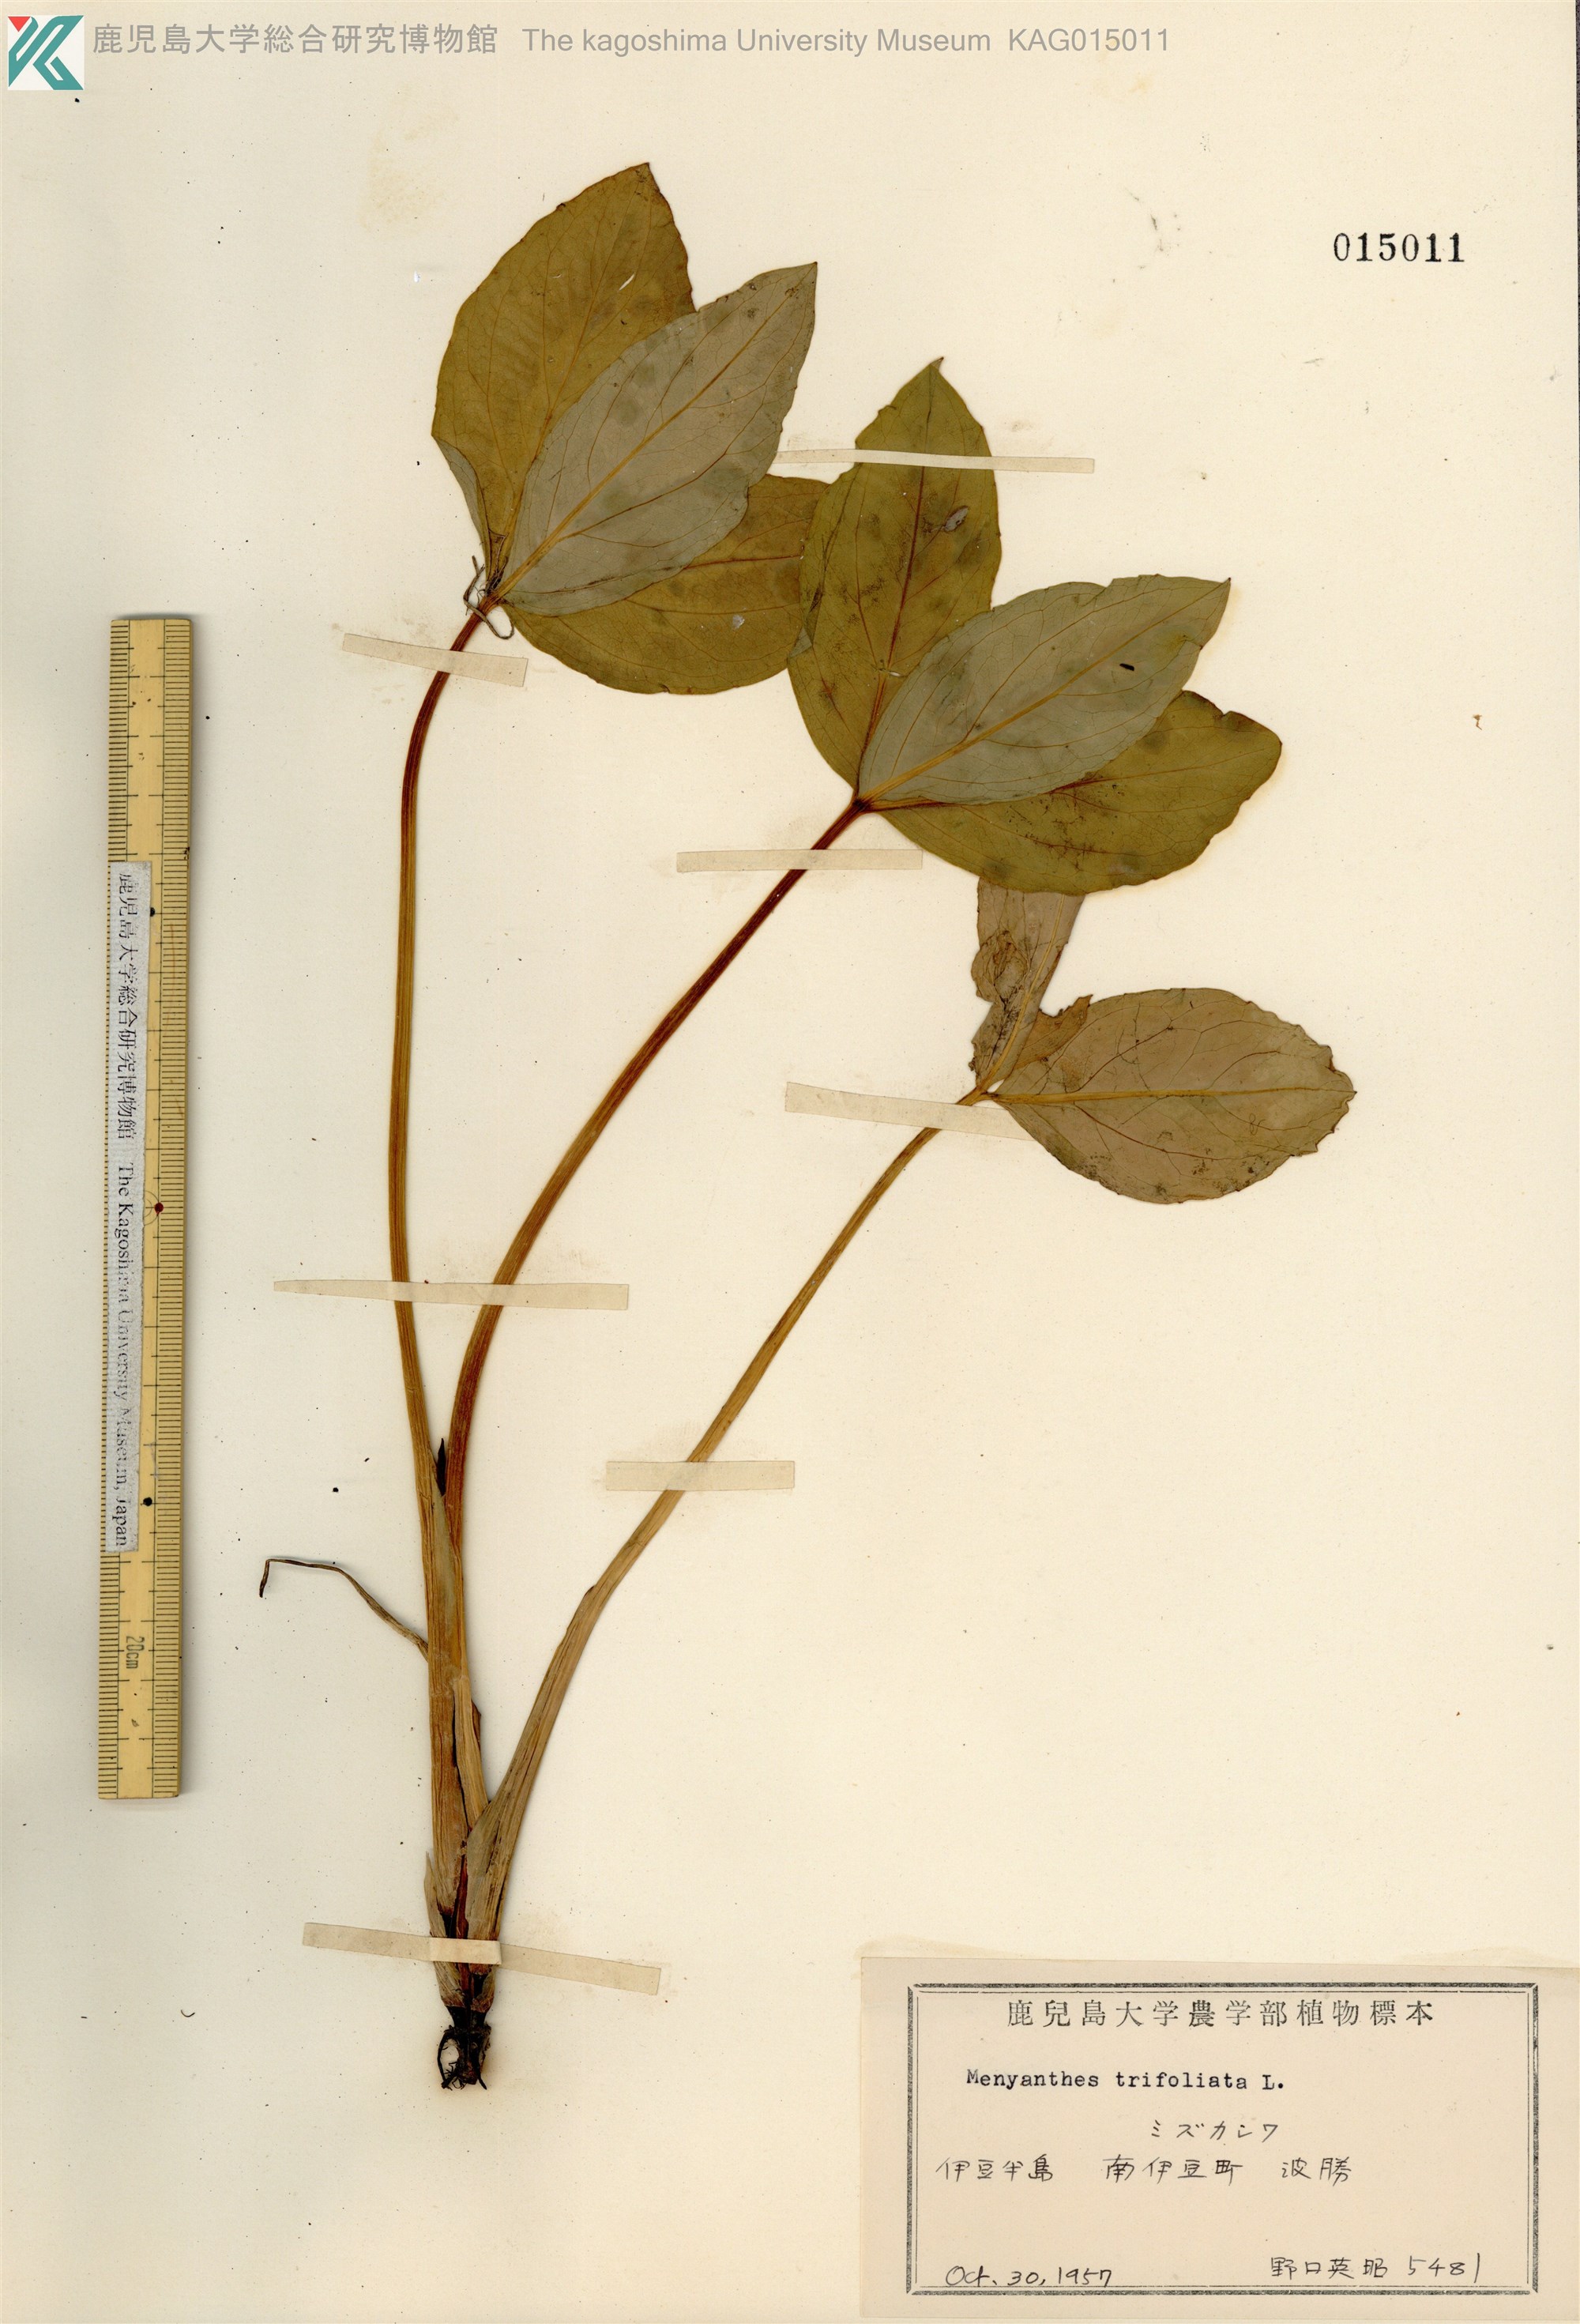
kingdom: Plantae
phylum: Tracheophyta
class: Magnoliopsida
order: Asterales
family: Menyanthaceae
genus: Menyanthes
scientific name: Menyanthes trifoliata
